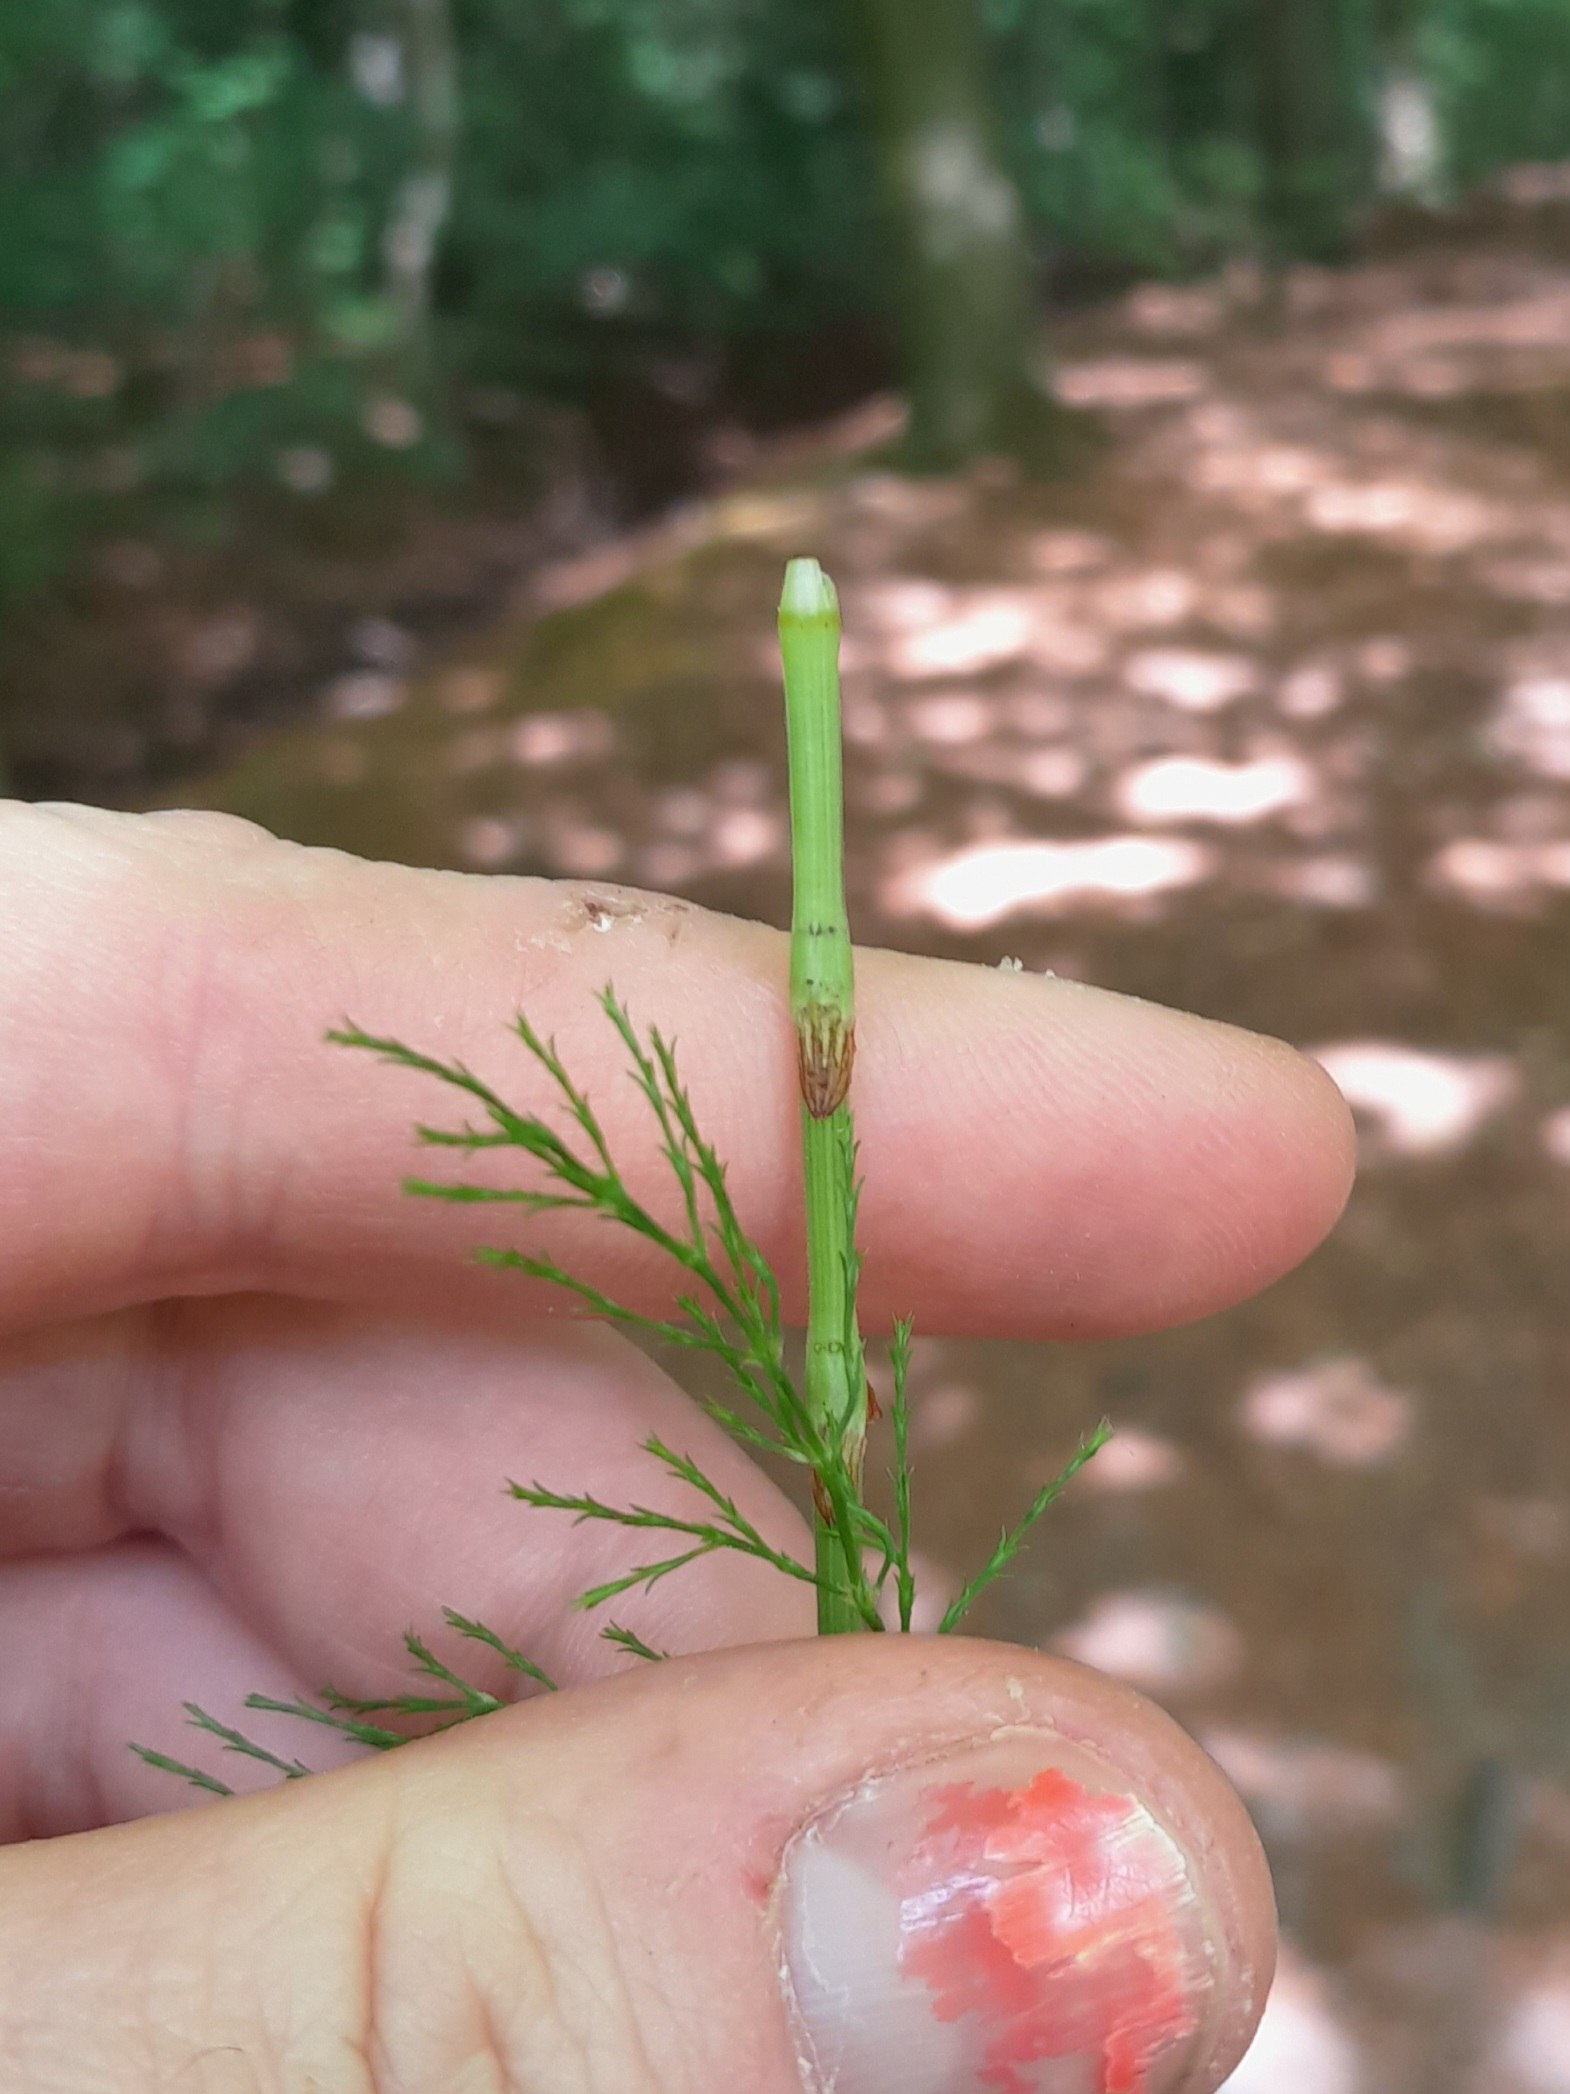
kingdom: Plantae
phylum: Tracheophyta
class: Polypodiopsida
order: Equisetales
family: Equisetaceae
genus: Equisetum
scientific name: Equisetum sylvaticum
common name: Skov-padderok
